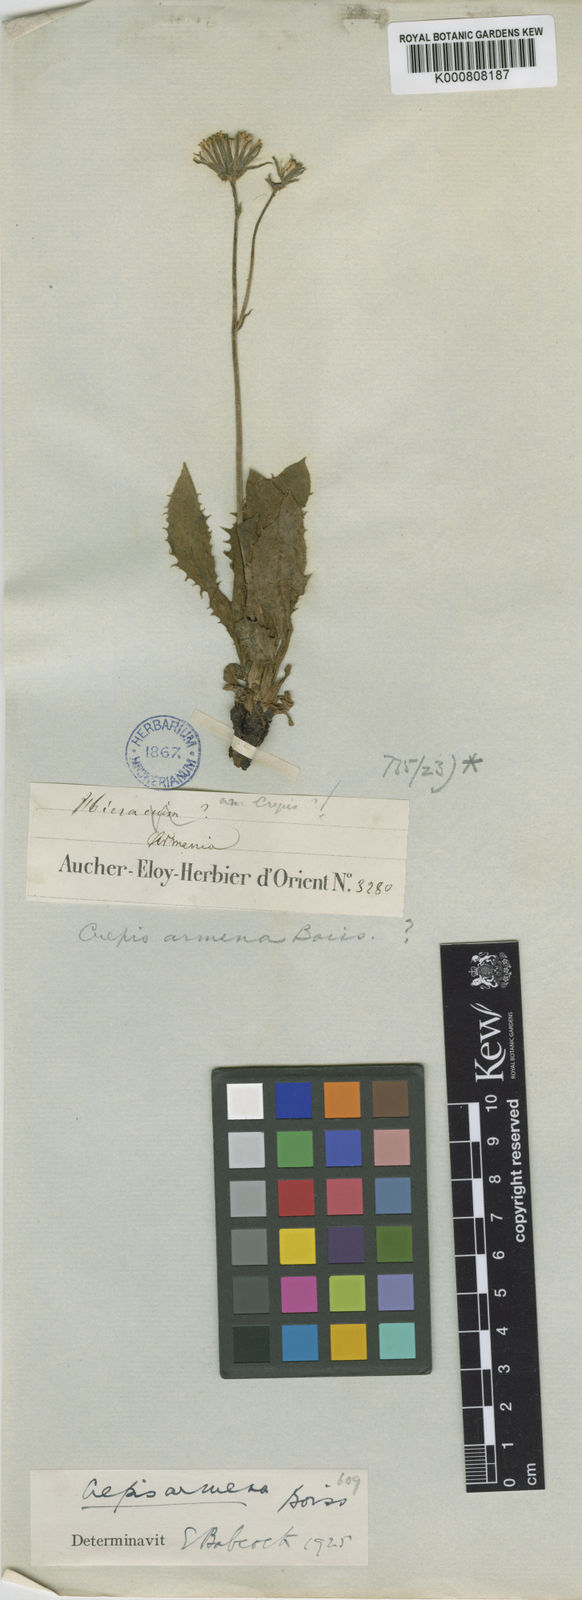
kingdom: Plantae
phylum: Tracheophyta
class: Magnoliopsida
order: Asterales
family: Asteraceae
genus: Crepis
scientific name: Crepis
